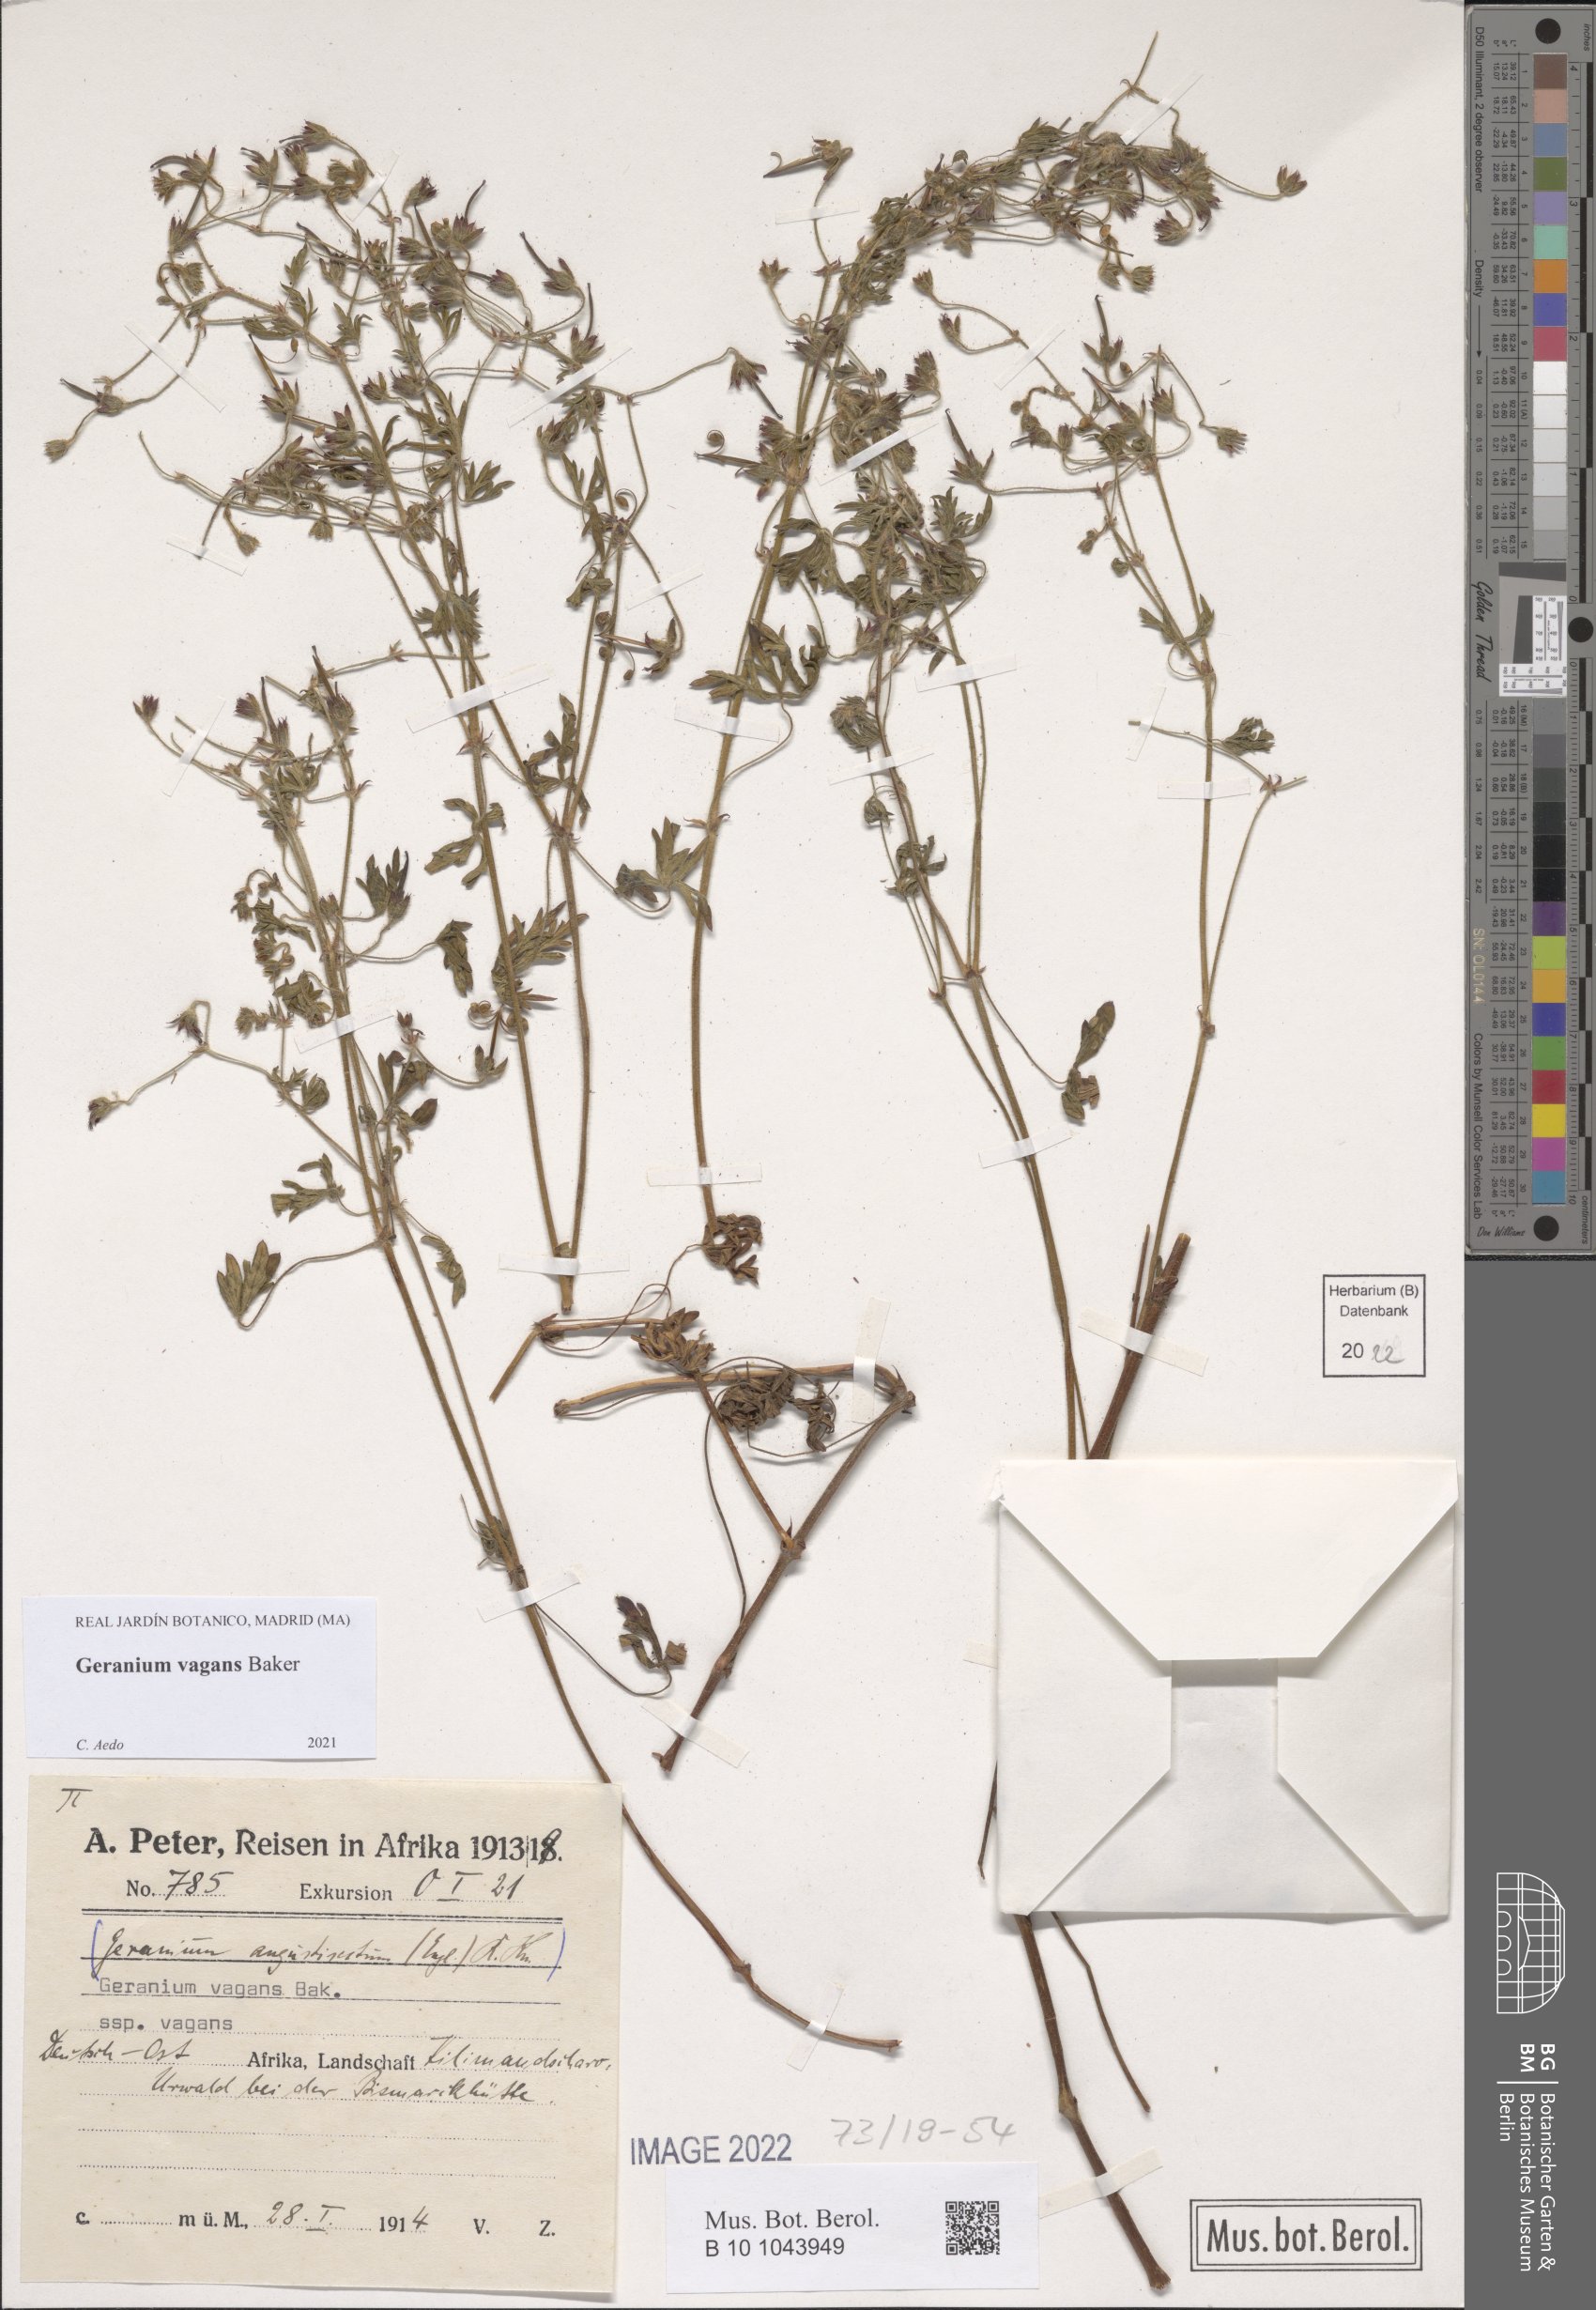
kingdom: Plantae
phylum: Tracheophyta
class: Magnoliopsida
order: Geraniales
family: Geraniaceae
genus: Geranium
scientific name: Geranium vagans
